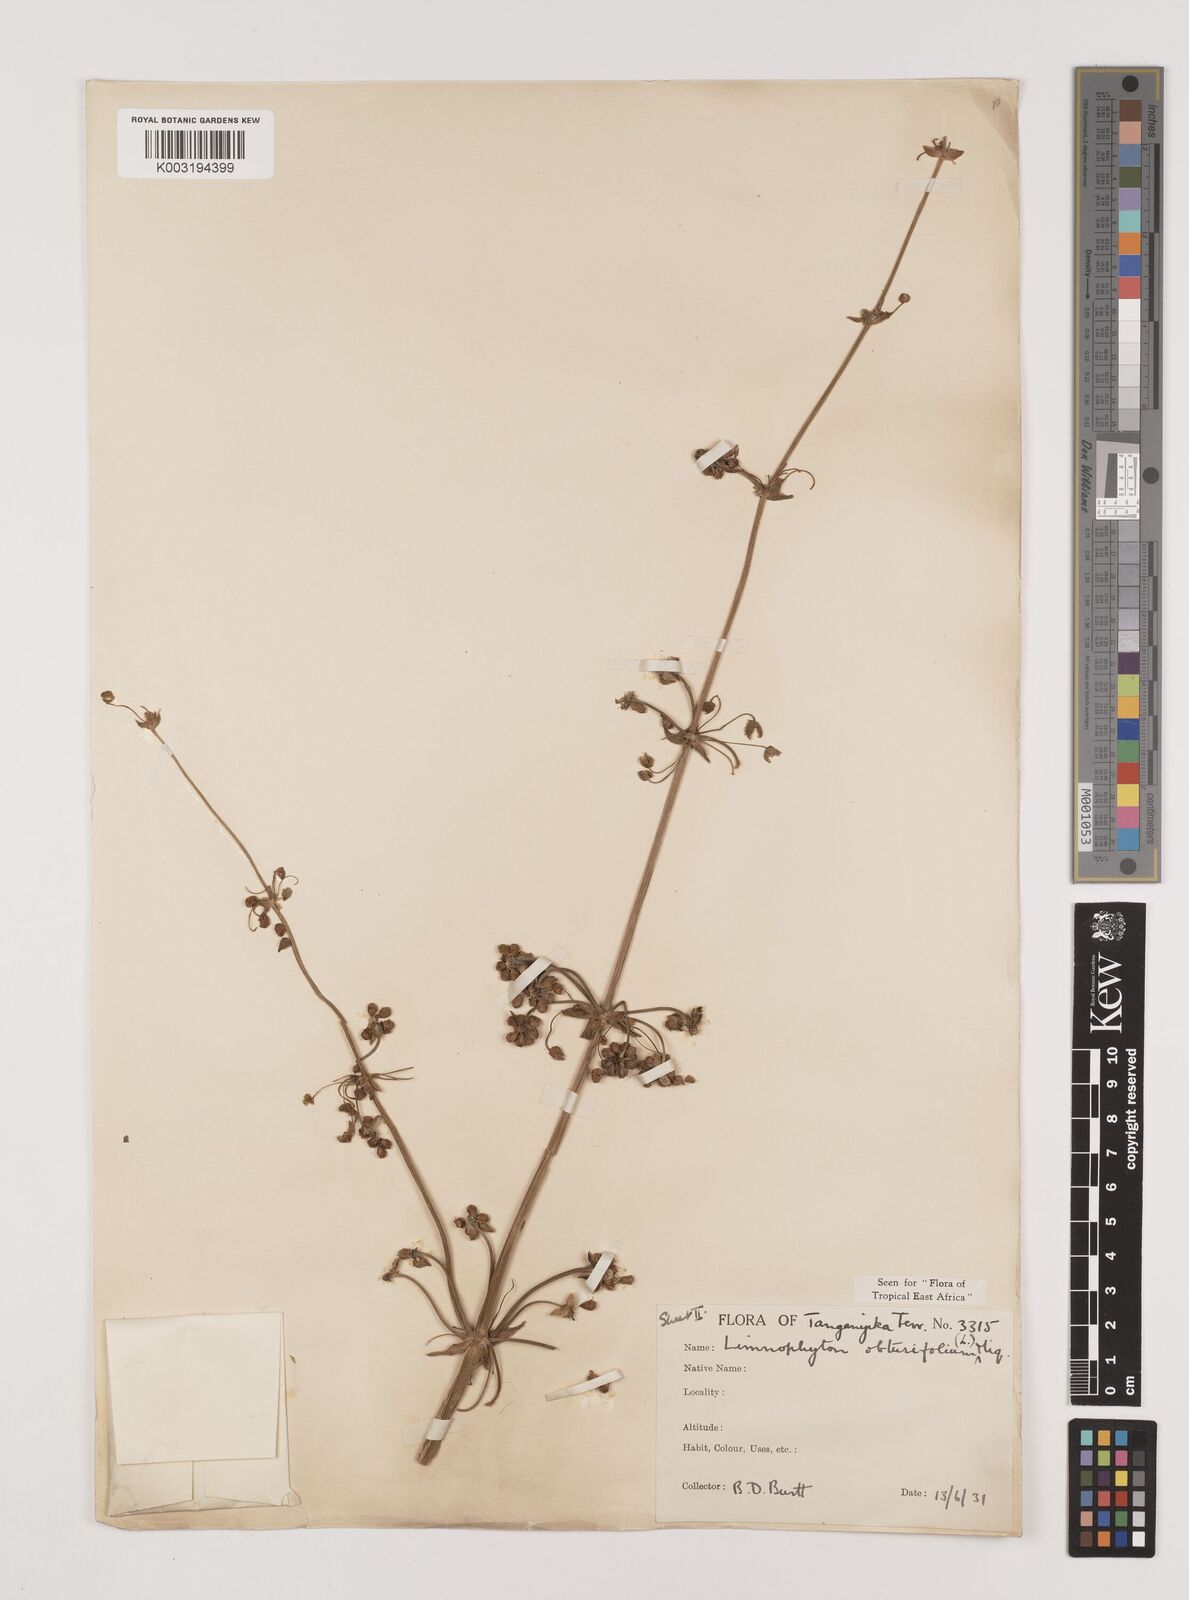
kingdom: Plantae
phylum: Tracheophyta
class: Liliopsida
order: Alismatales
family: Alismataceae
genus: Limnophyton
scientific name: Limnophyton obtusifolium
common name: Arrow head
